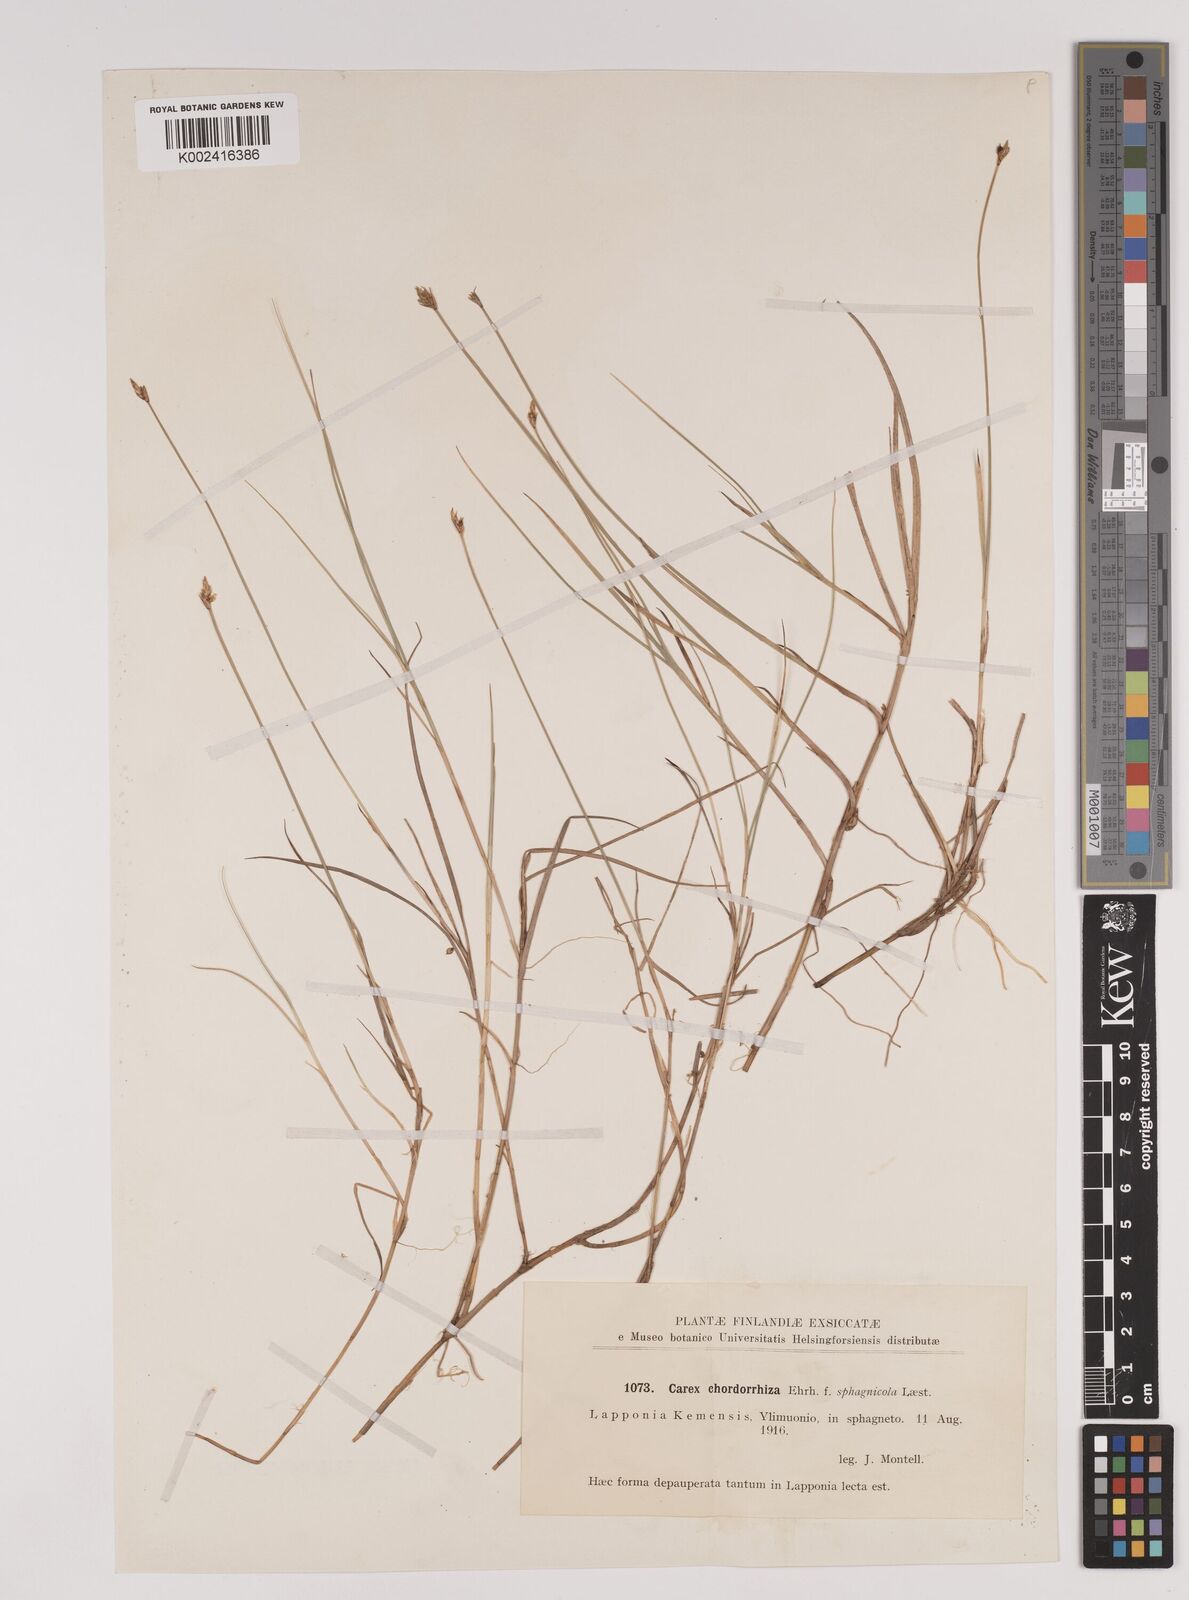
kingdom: Plantae
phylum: Tracheophyta
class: Liliopsida
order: Poales
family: Cyperaceae
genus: Carex
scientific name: Carex chordorrhiza
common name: String sedge
